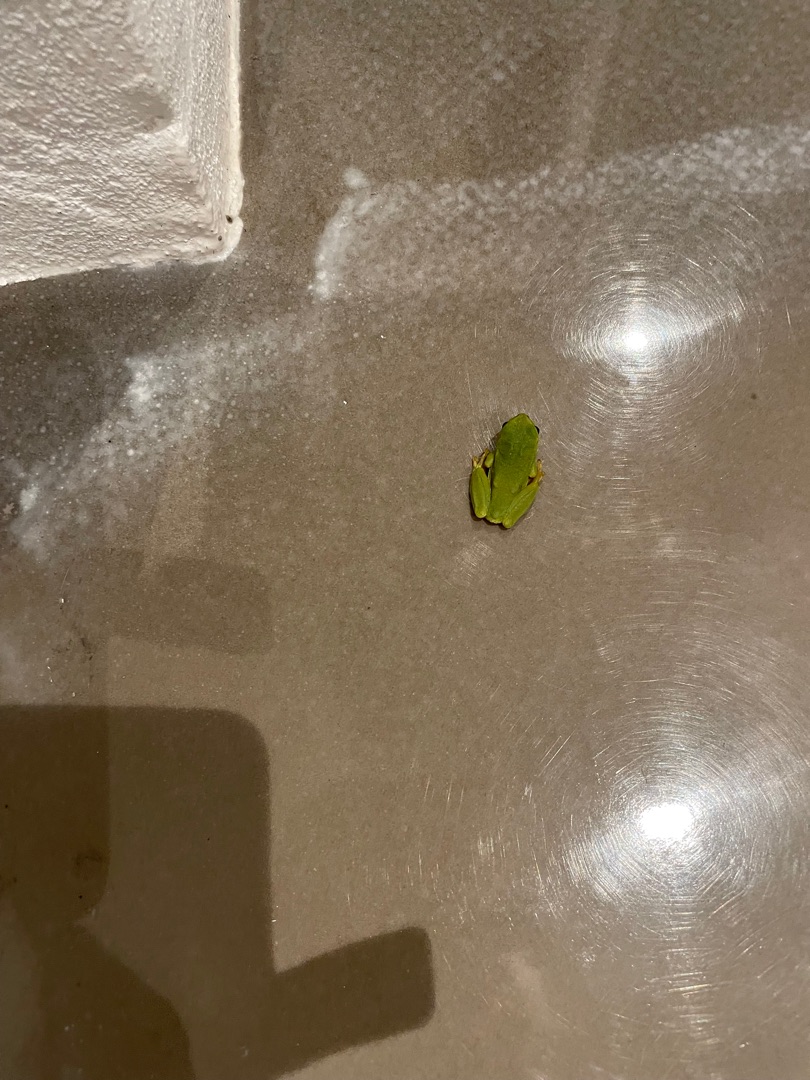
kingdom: Animalia
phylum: Chordata
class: Amphibia
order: Anura
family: Hylidae
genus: Hyla
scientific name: Hyla arborea
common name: Løvfrø
